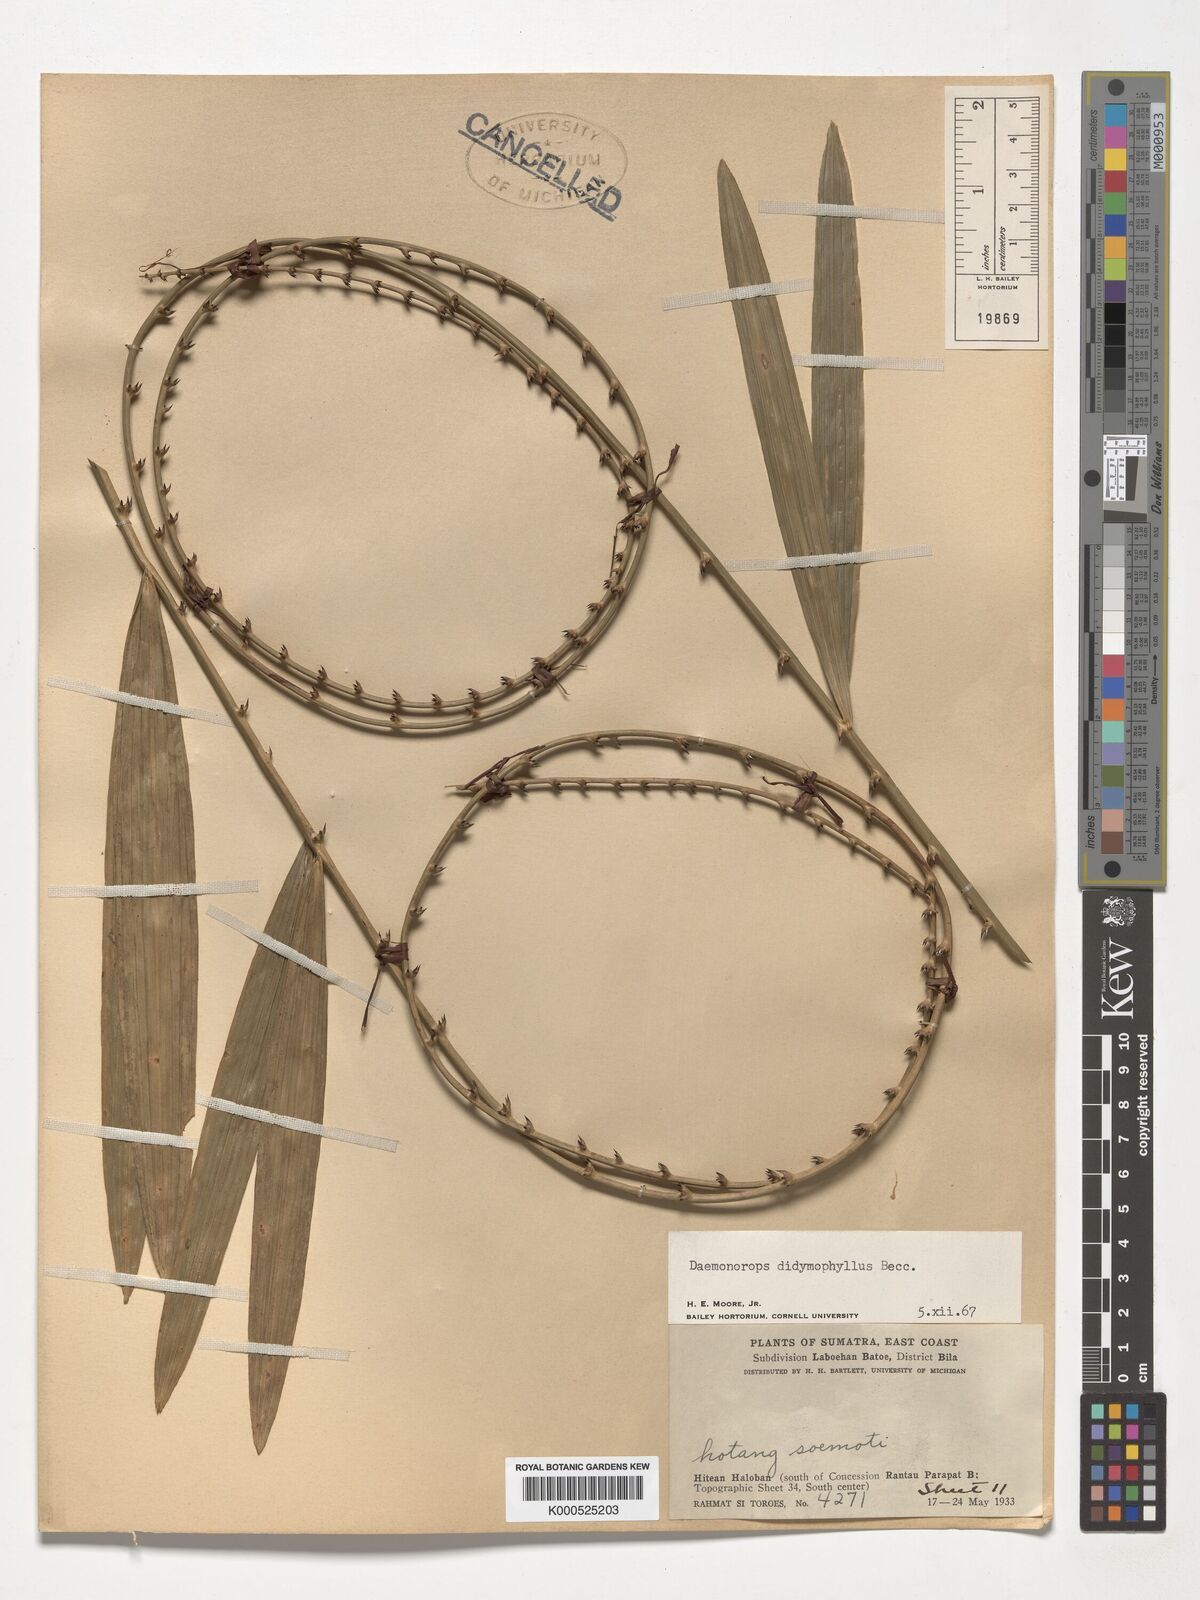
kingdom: Plantae
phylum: Tracheophyta
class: Liliopsida
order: Arecales
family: Arecaceae
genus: Calamus
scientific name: Calamus gracilipes
